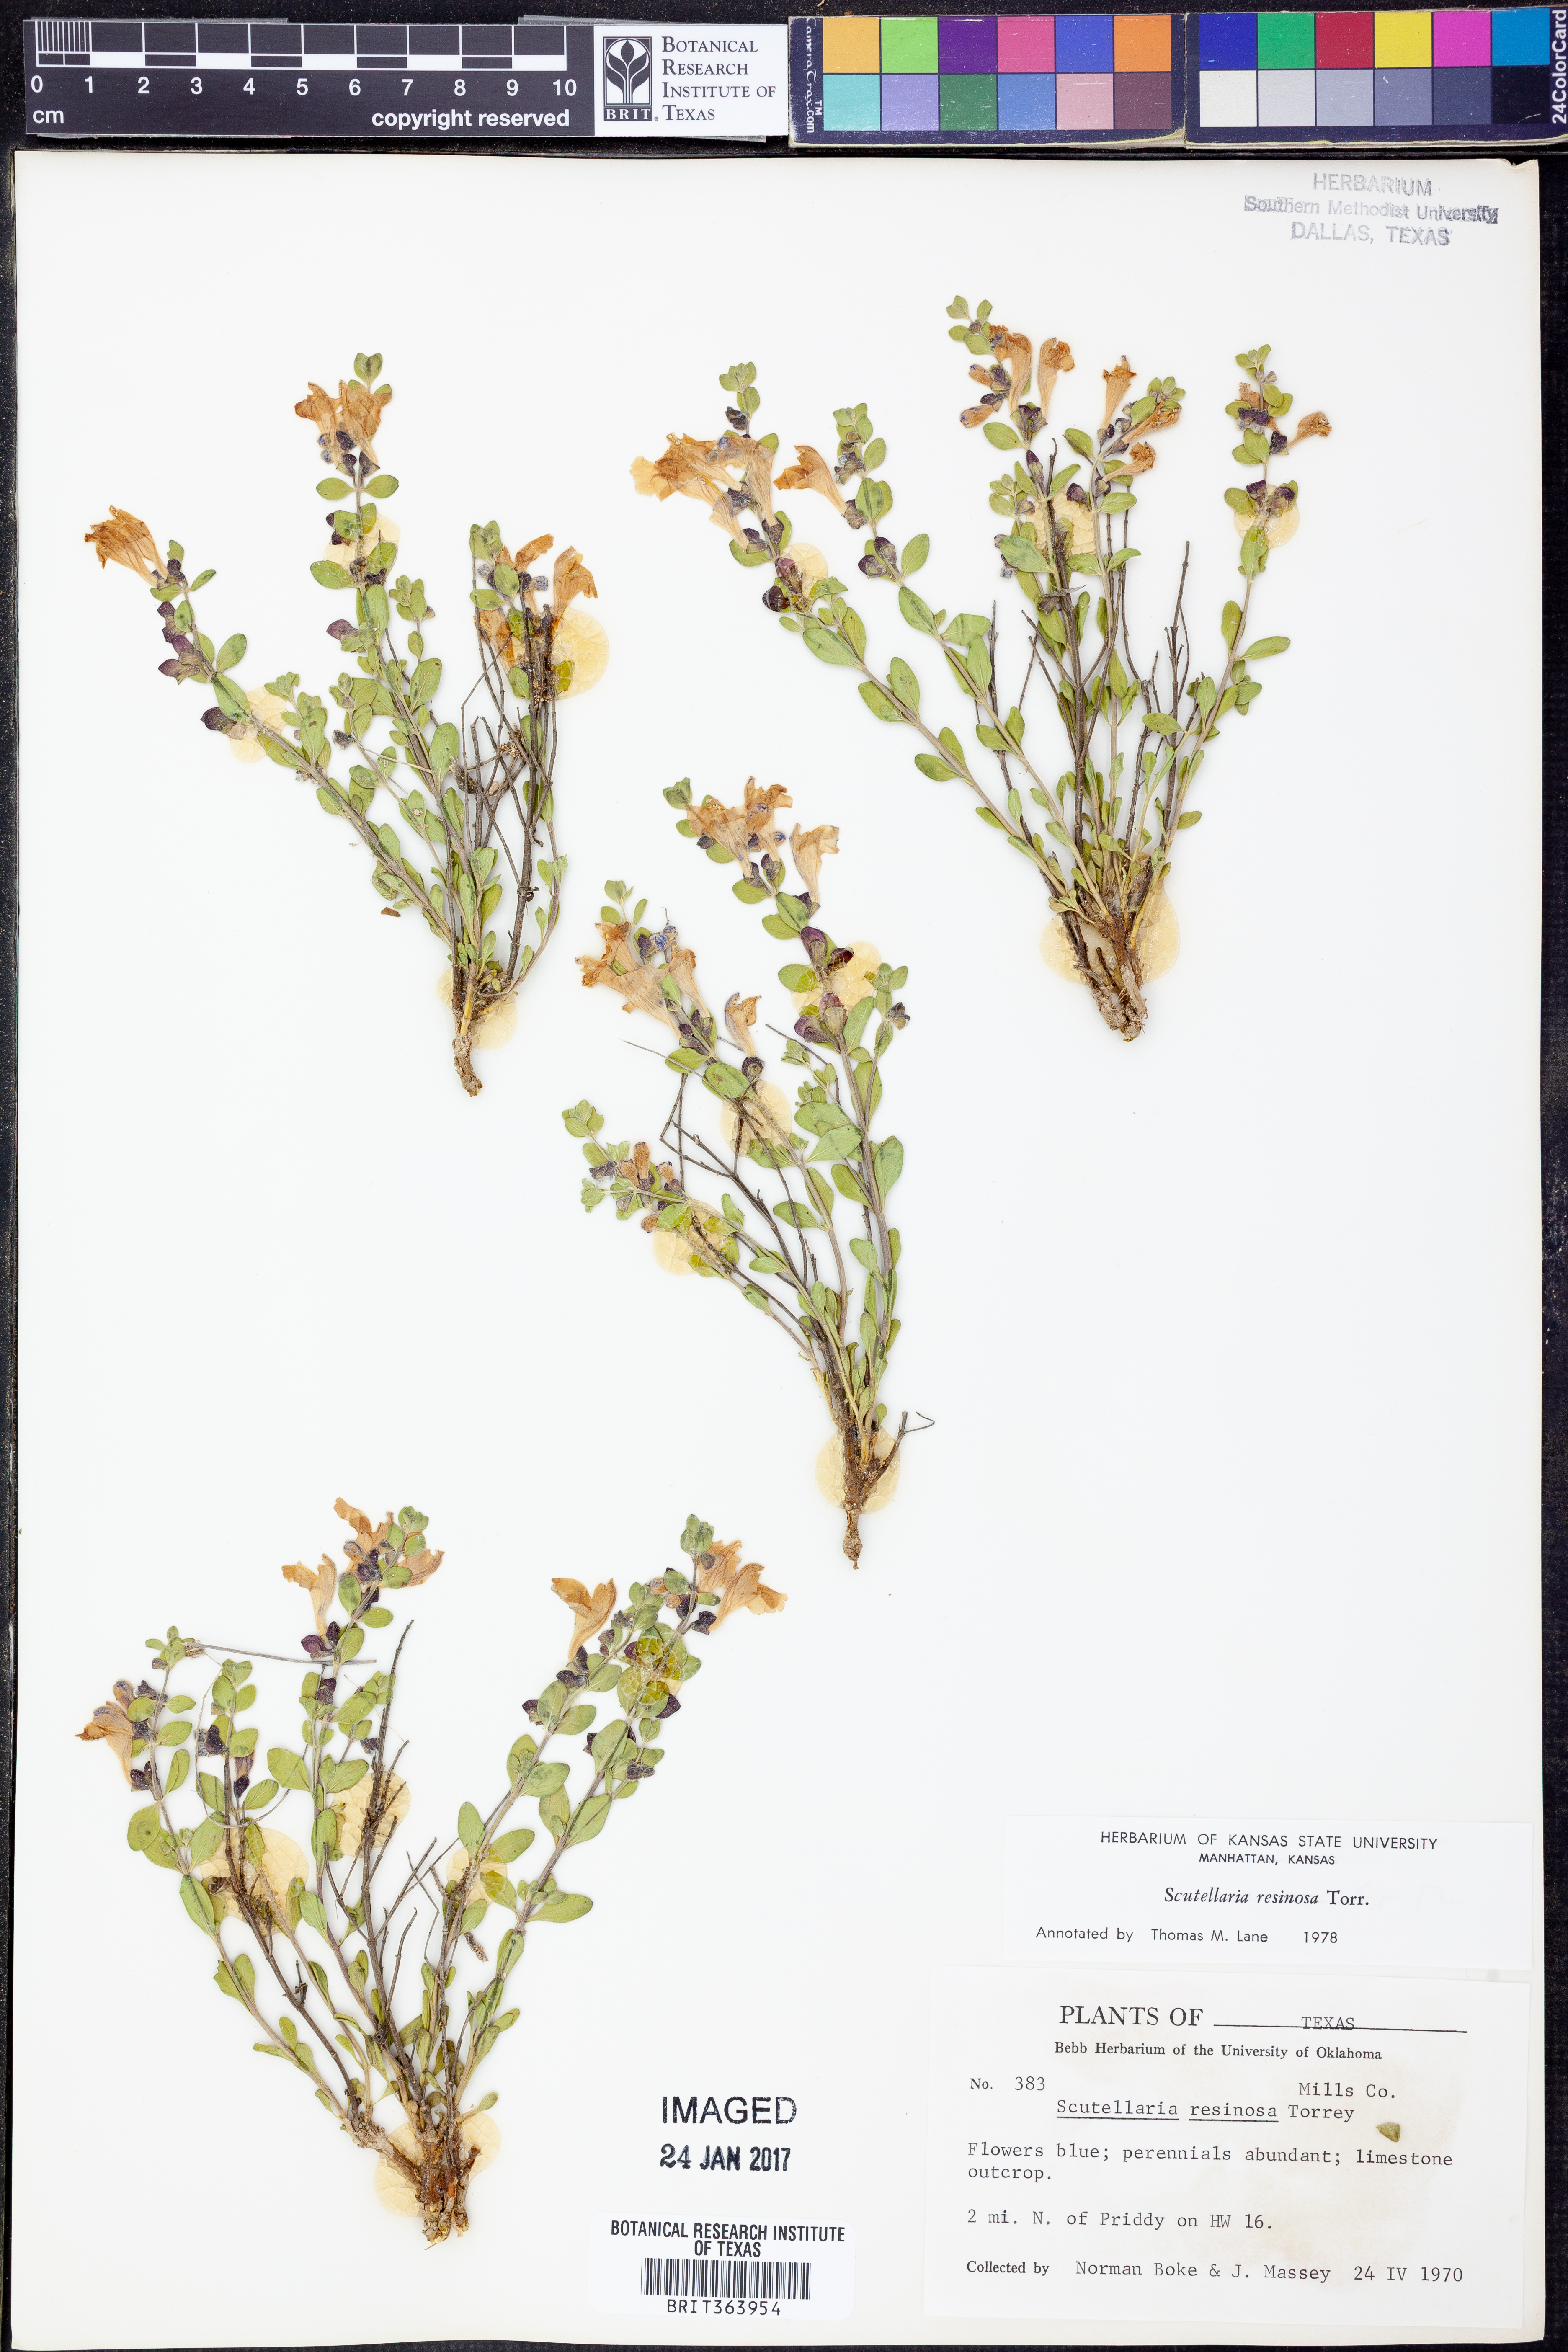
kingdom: Plantae
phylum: Tracheophyta
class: Magnoliopsida
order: Lamiales
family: Lamiaceae
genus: Scutellaria
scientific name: Scutellaria resinosa
